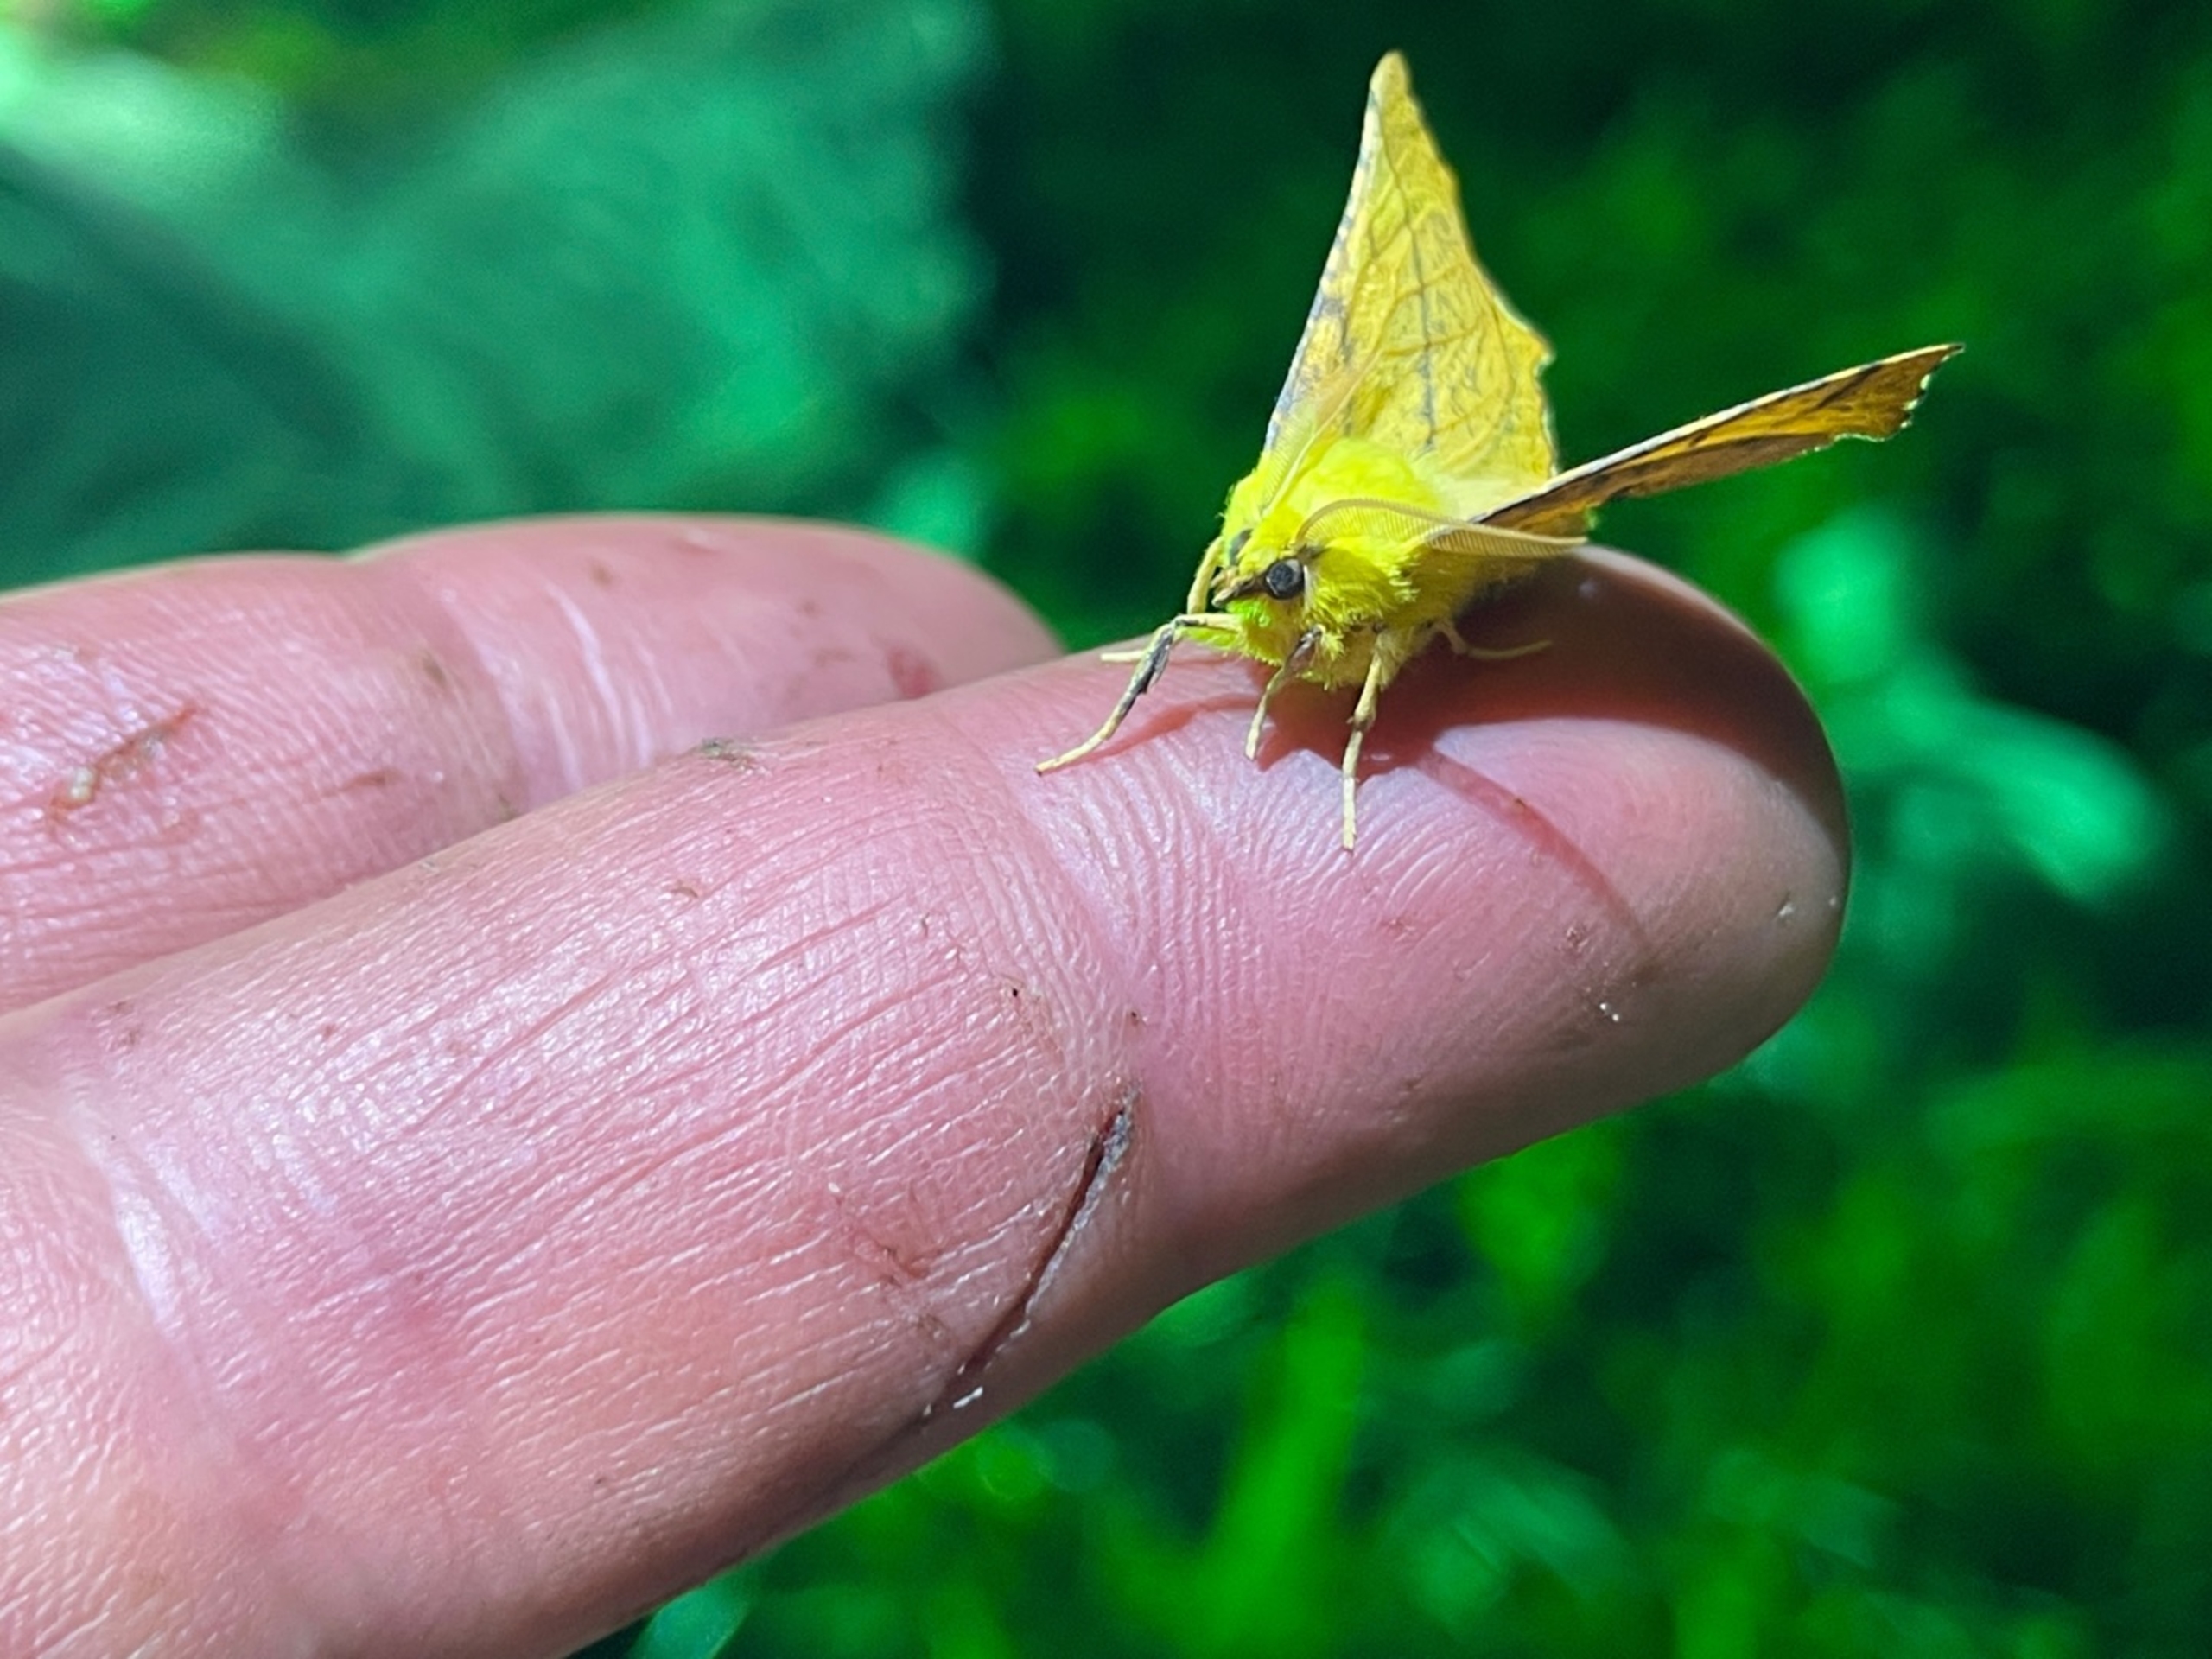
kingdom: Animalia
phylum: Arthropoda
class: Insecta
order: Lepidoptera
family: Geometridae
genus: Ennomos
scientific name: Ennomos alniaria
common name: Elle-tandmåler
